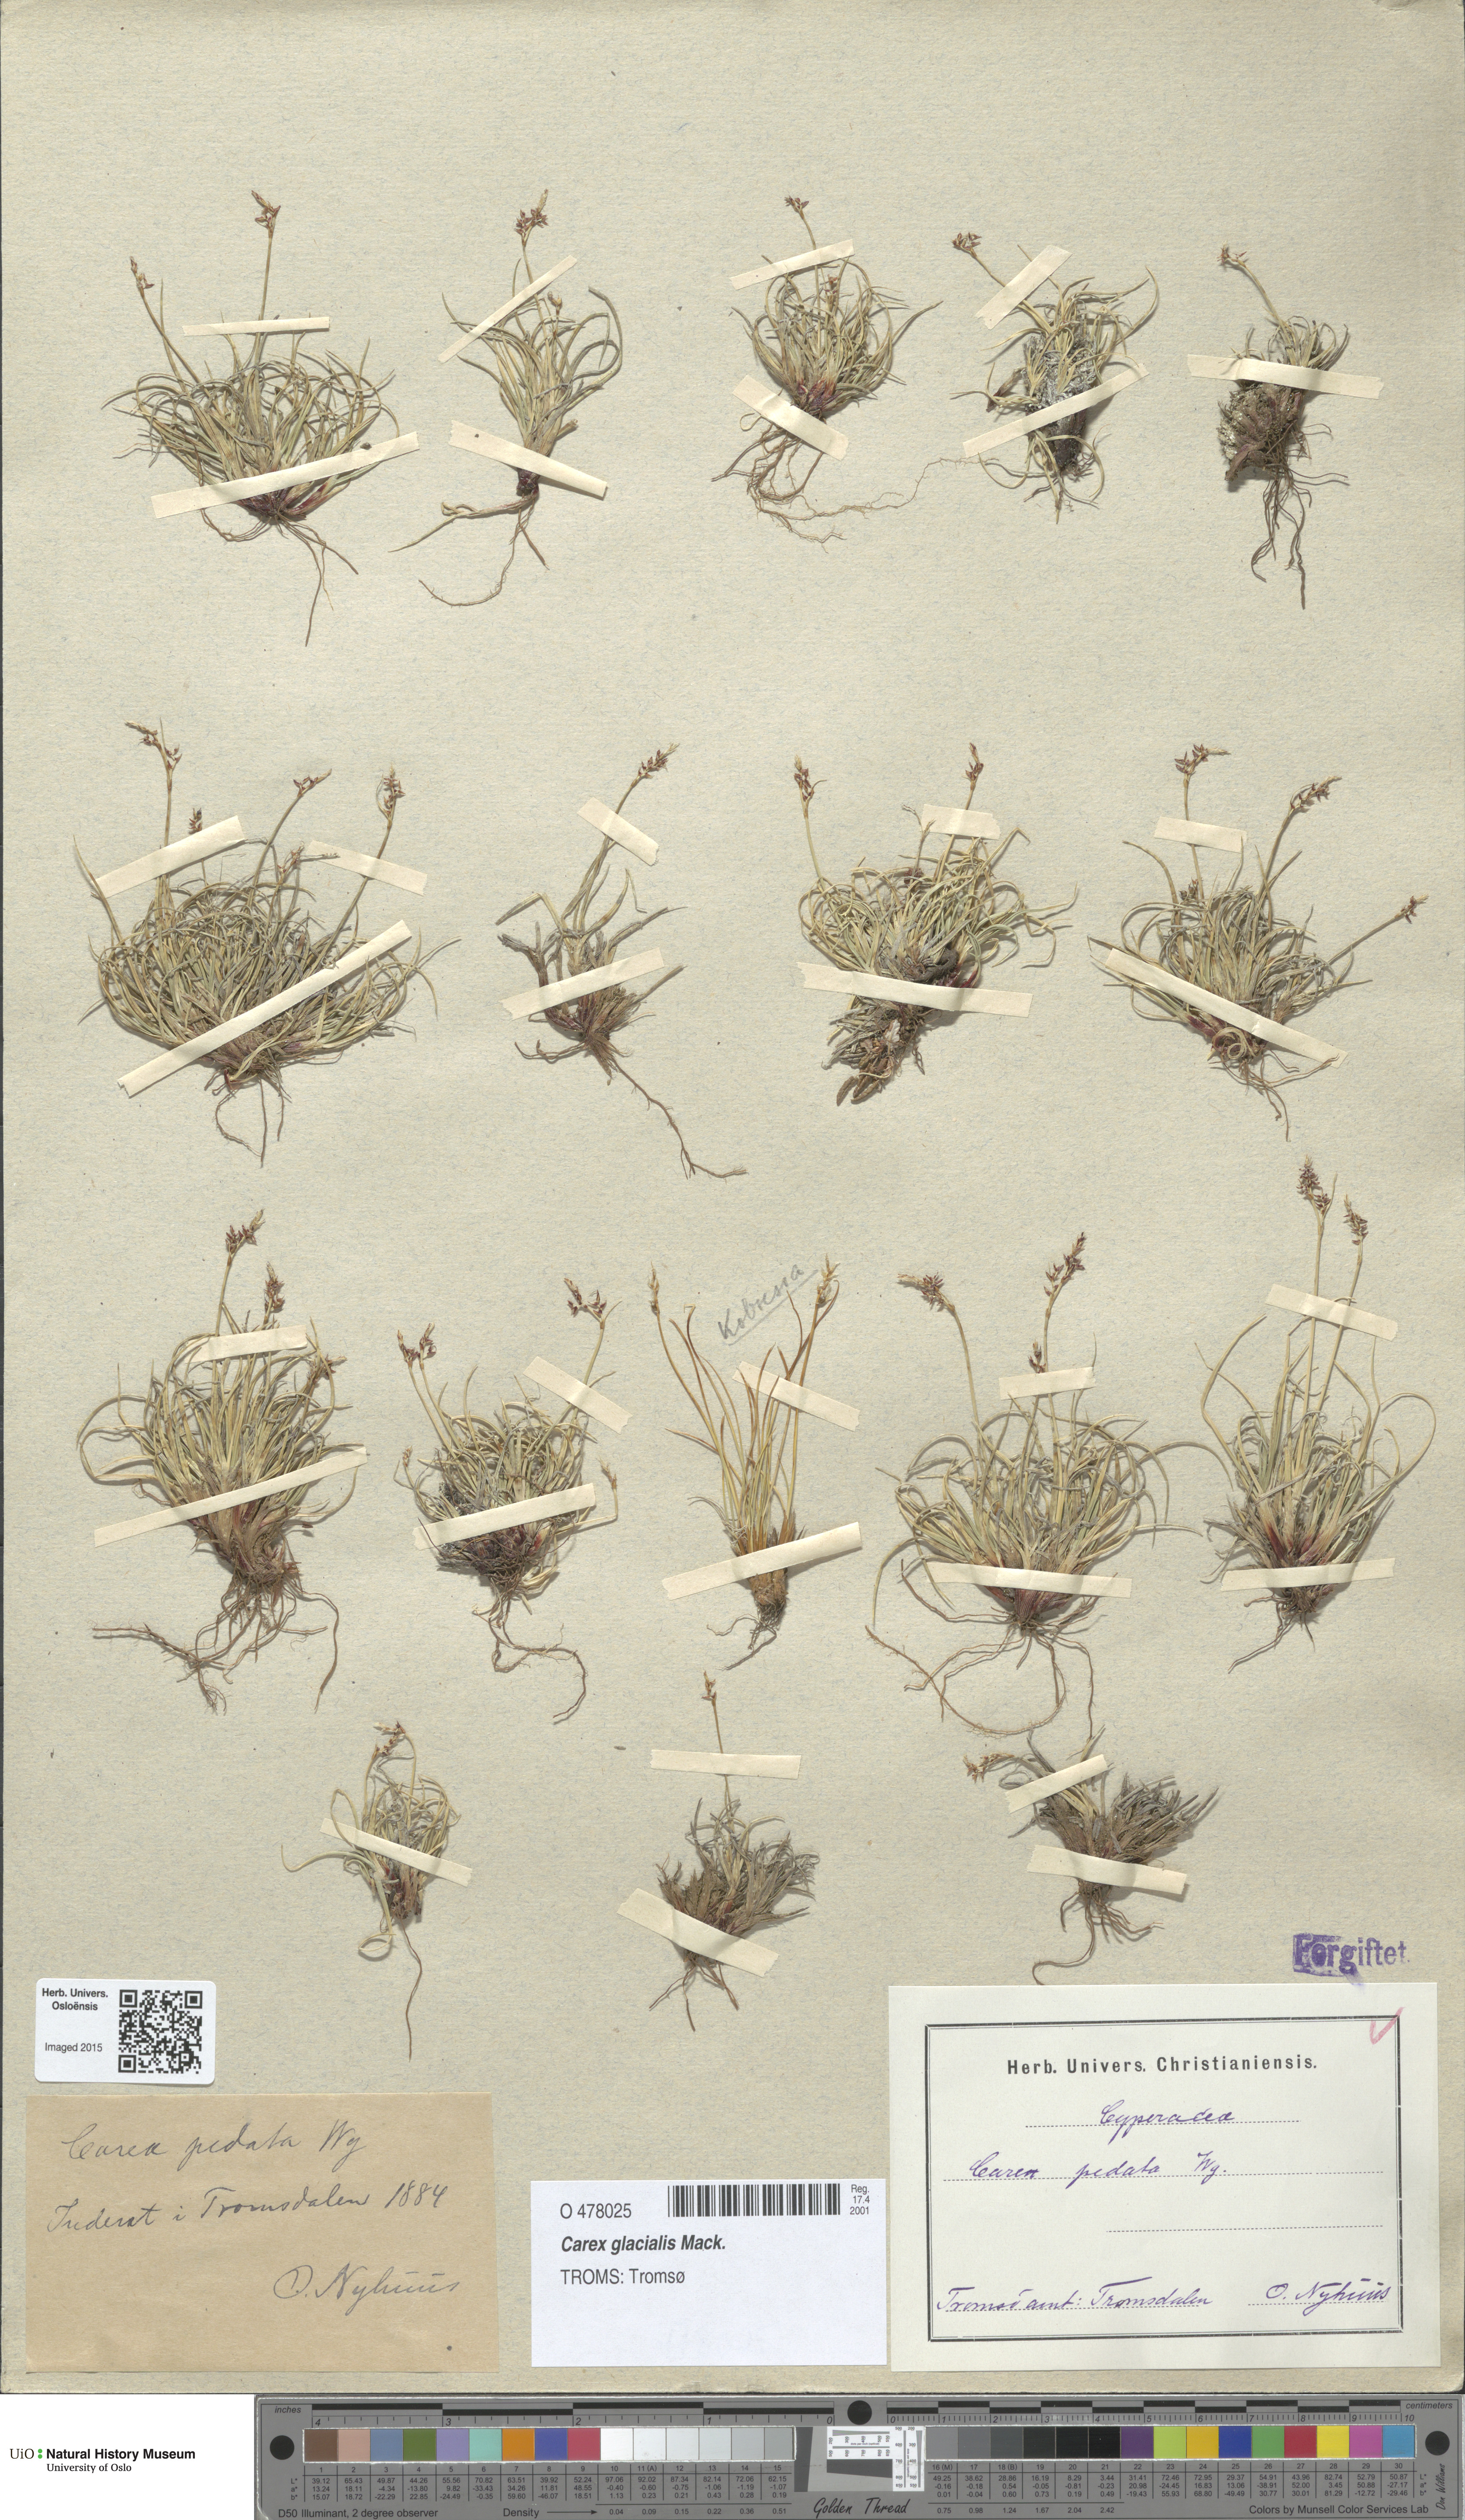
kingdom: Plantae
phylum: Tracheophyta
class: Liliopsida
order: Poales
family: Cyperaceae
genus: Carex
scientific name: Carex glacialis
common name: Newfoundland sedge
